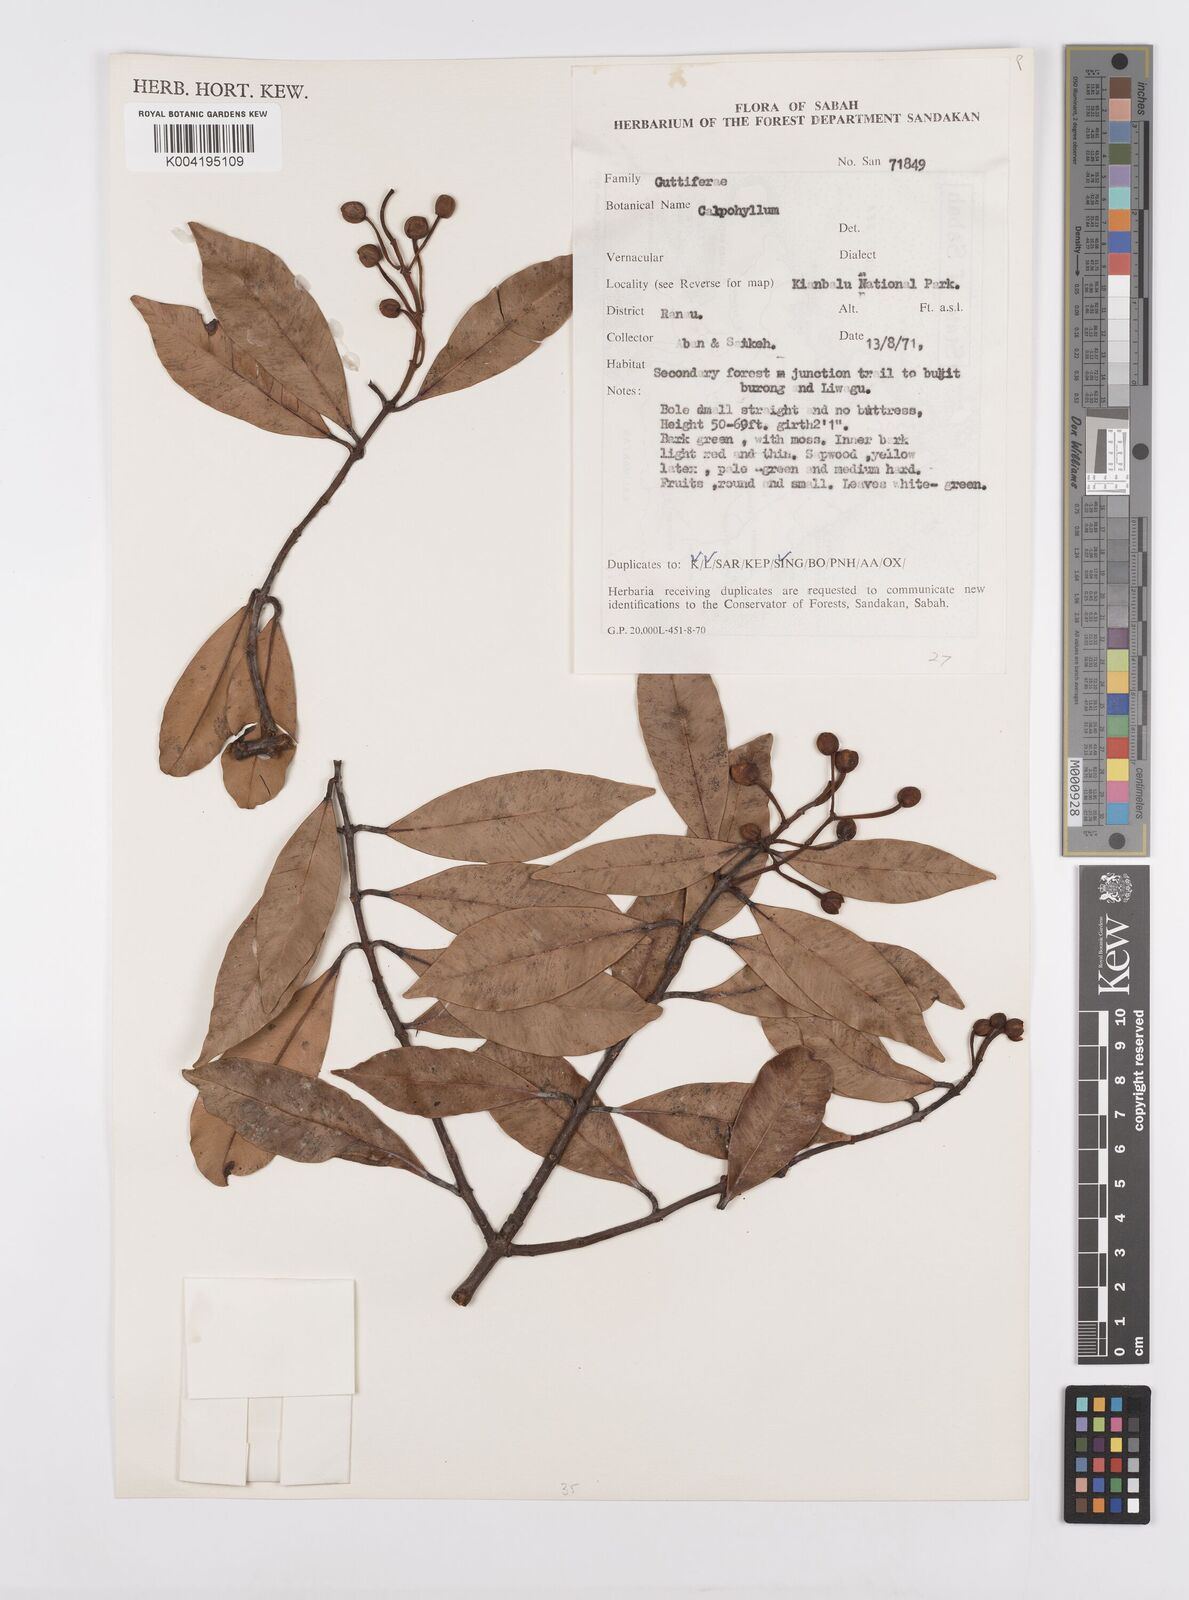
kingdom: Plantae
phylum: Tracheophyta
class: Magnoliopsida
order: Malpighiales
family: Calophyllaceae
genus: Calophyllum
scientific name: Calophyllum garcinioides
